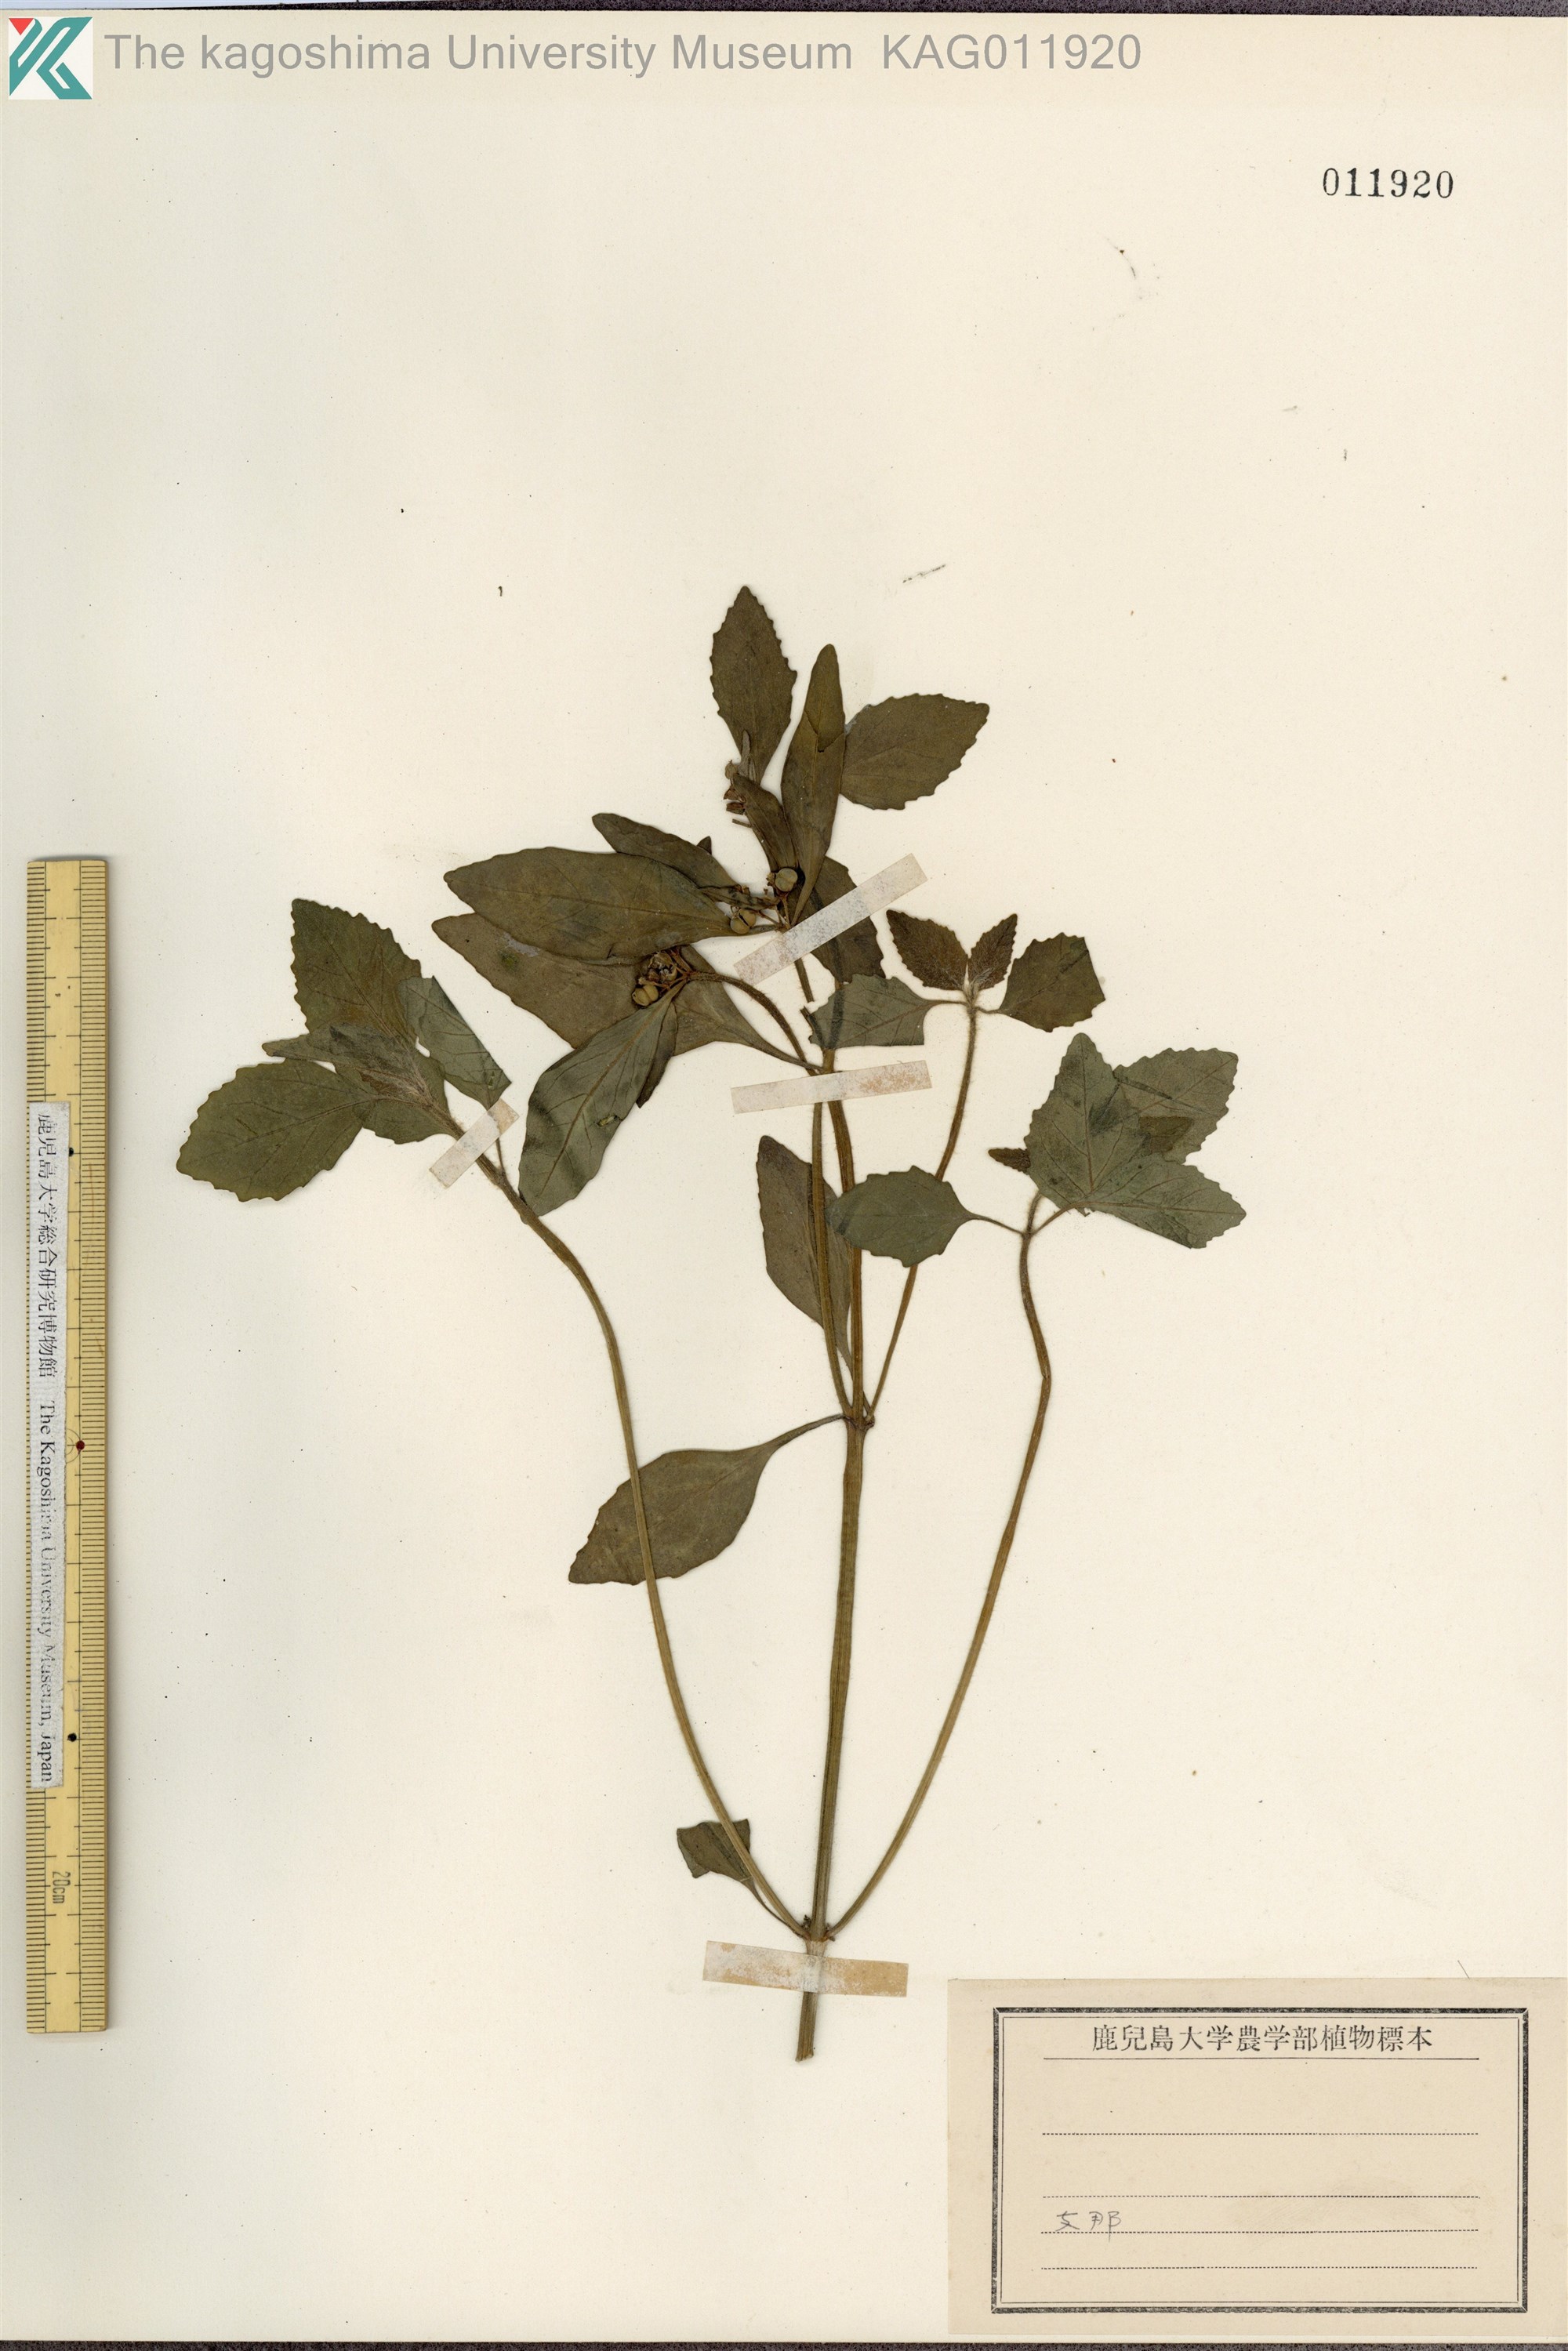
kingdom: Plantae
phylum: Tracheophyta
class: Magnoliopsida
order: Malpighiales
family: Euphorbiaceae
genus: Euphorbia
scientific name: Euphorbia dentata
